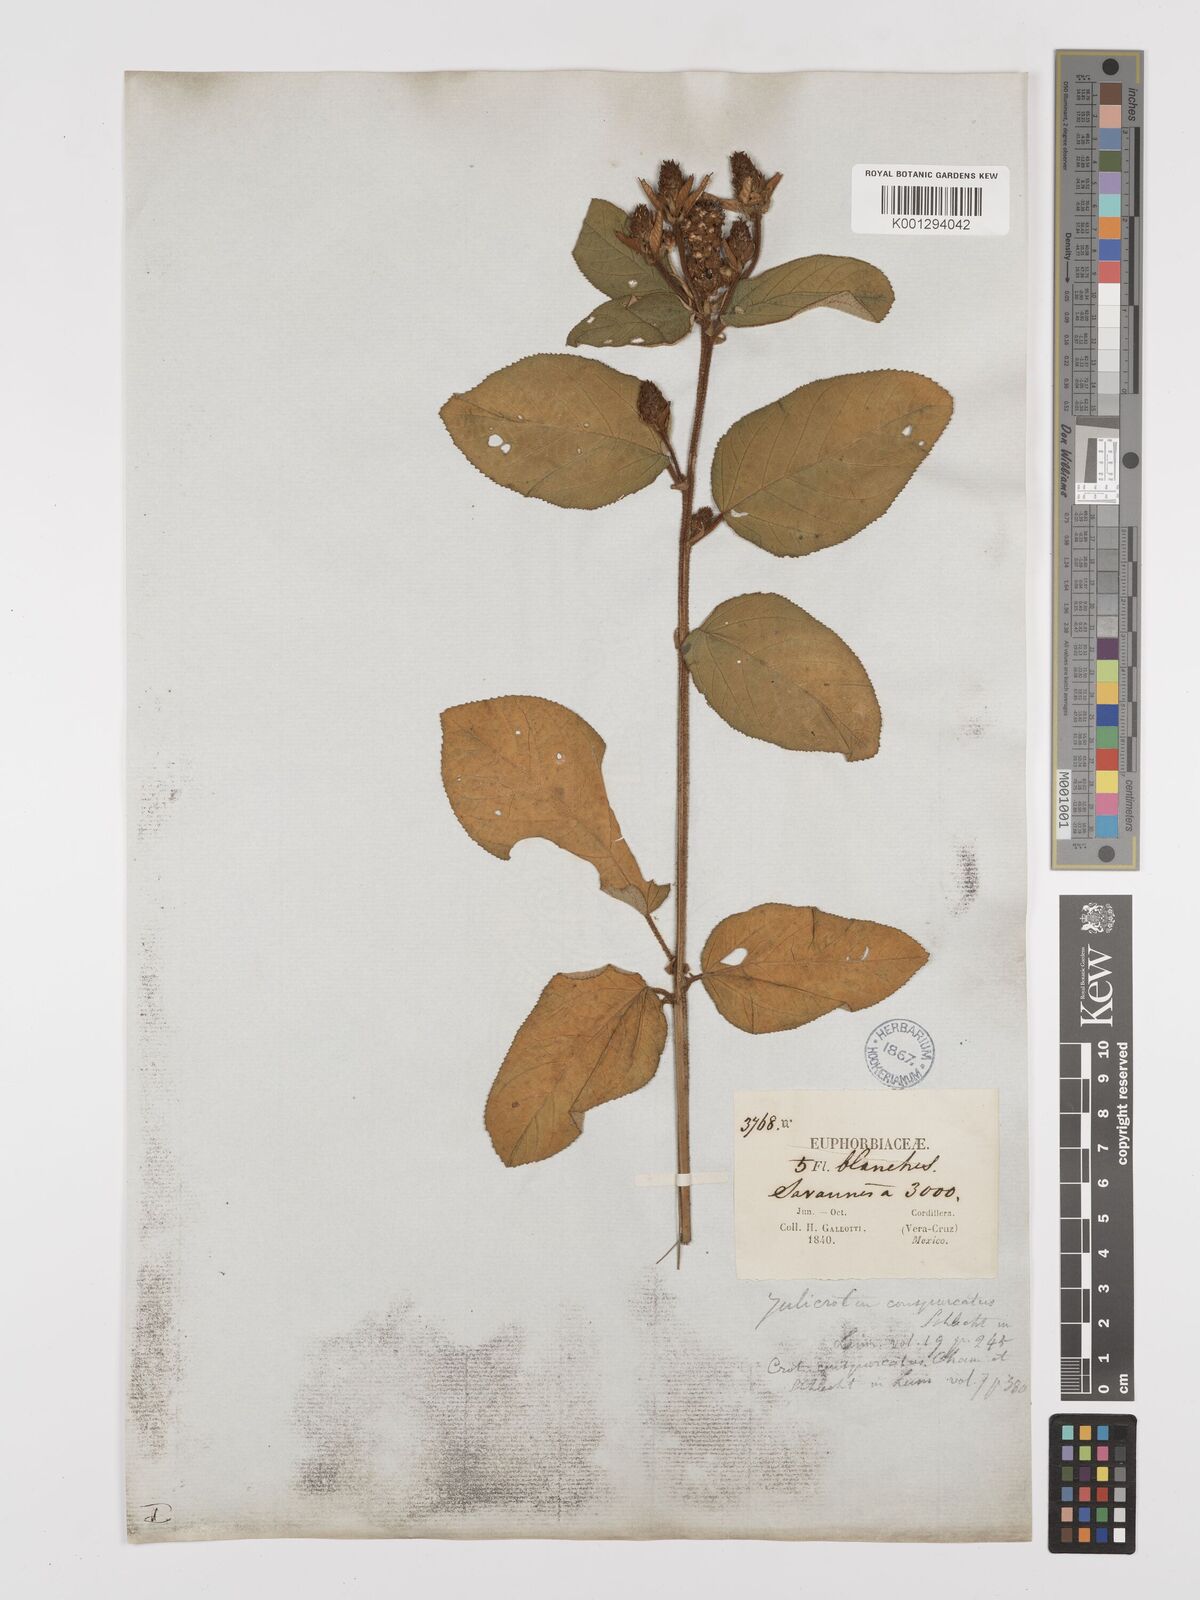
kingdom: Plantae
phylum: Tracheophyta
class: Magnoliopsida
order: Malpighiales
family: Euphorbiaceae
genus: Croton
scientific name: Croton conspurcatus
